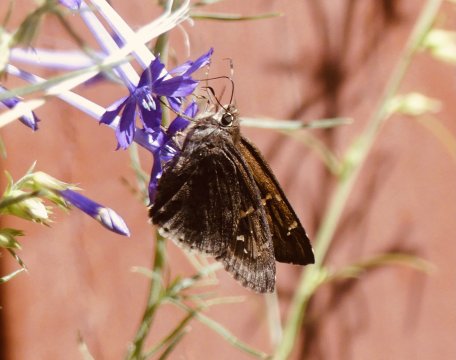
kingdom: Animalia
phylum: Arthropoda
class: Insecta
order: Lepidoptera
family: Hesperiidae
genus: Cogia
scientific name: Cogia hippalus
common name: Acacia Skipper
